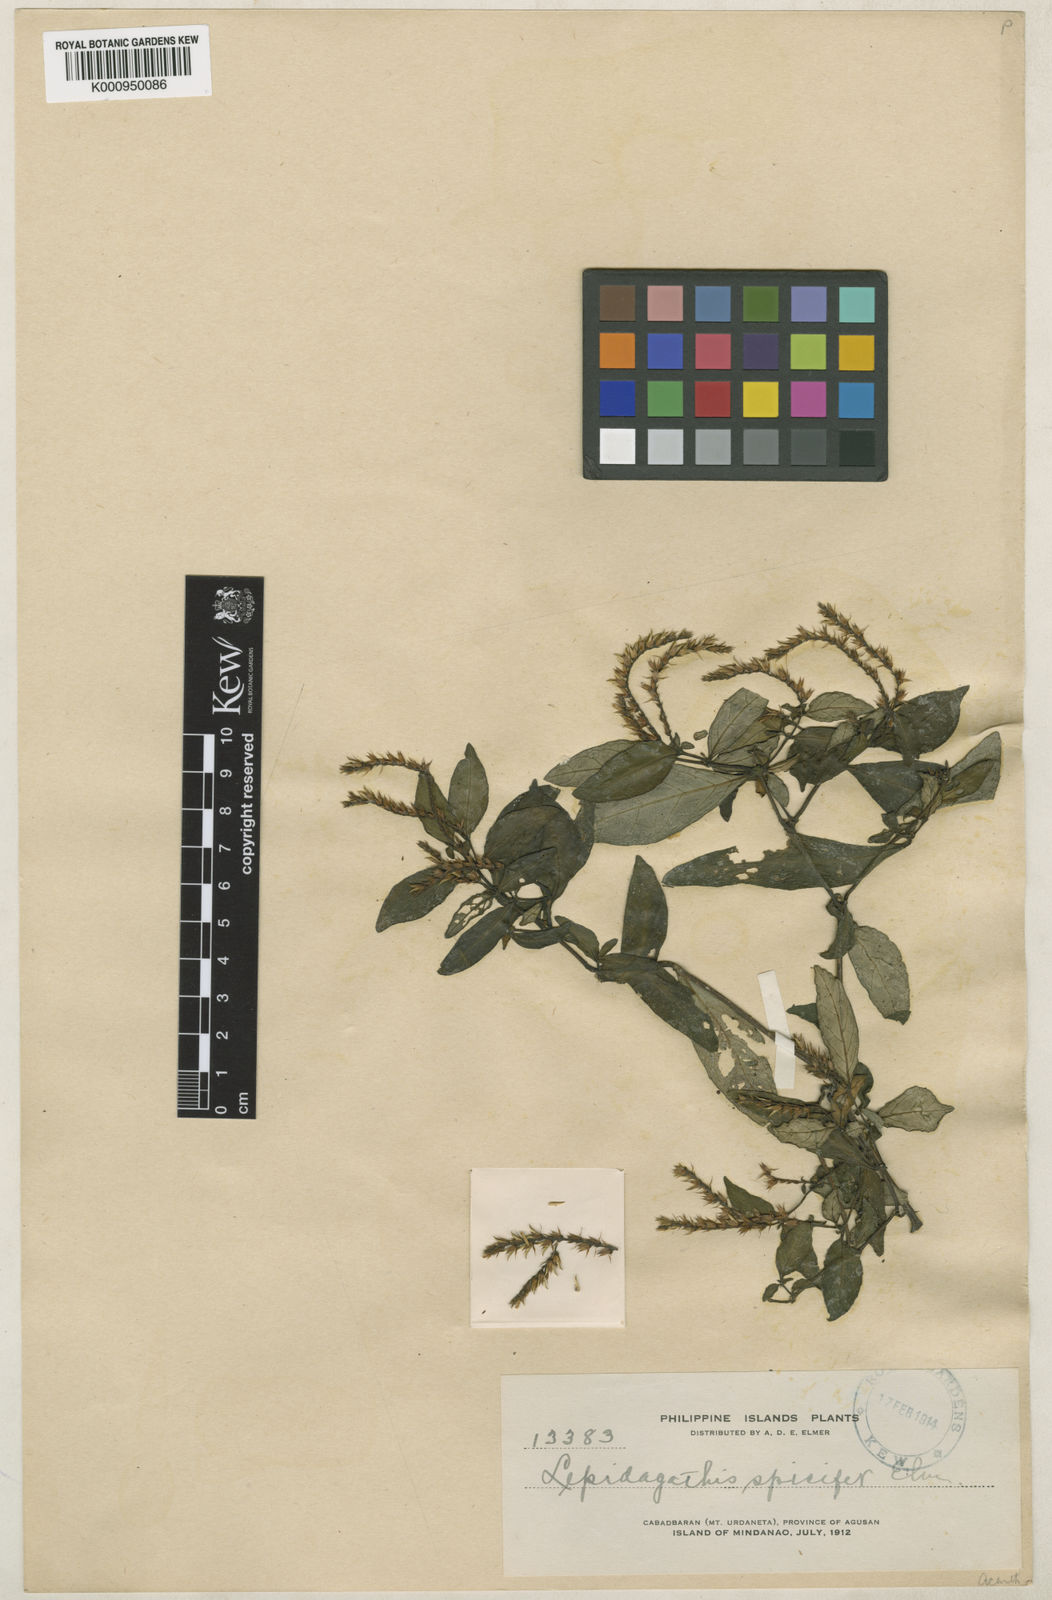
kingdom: Plantae
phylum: Tracheophyta
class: Magnoliopsida
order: Lamiales
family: Acanthaceae
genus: Lepidagathis
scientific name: Lepidagathis spicifer
